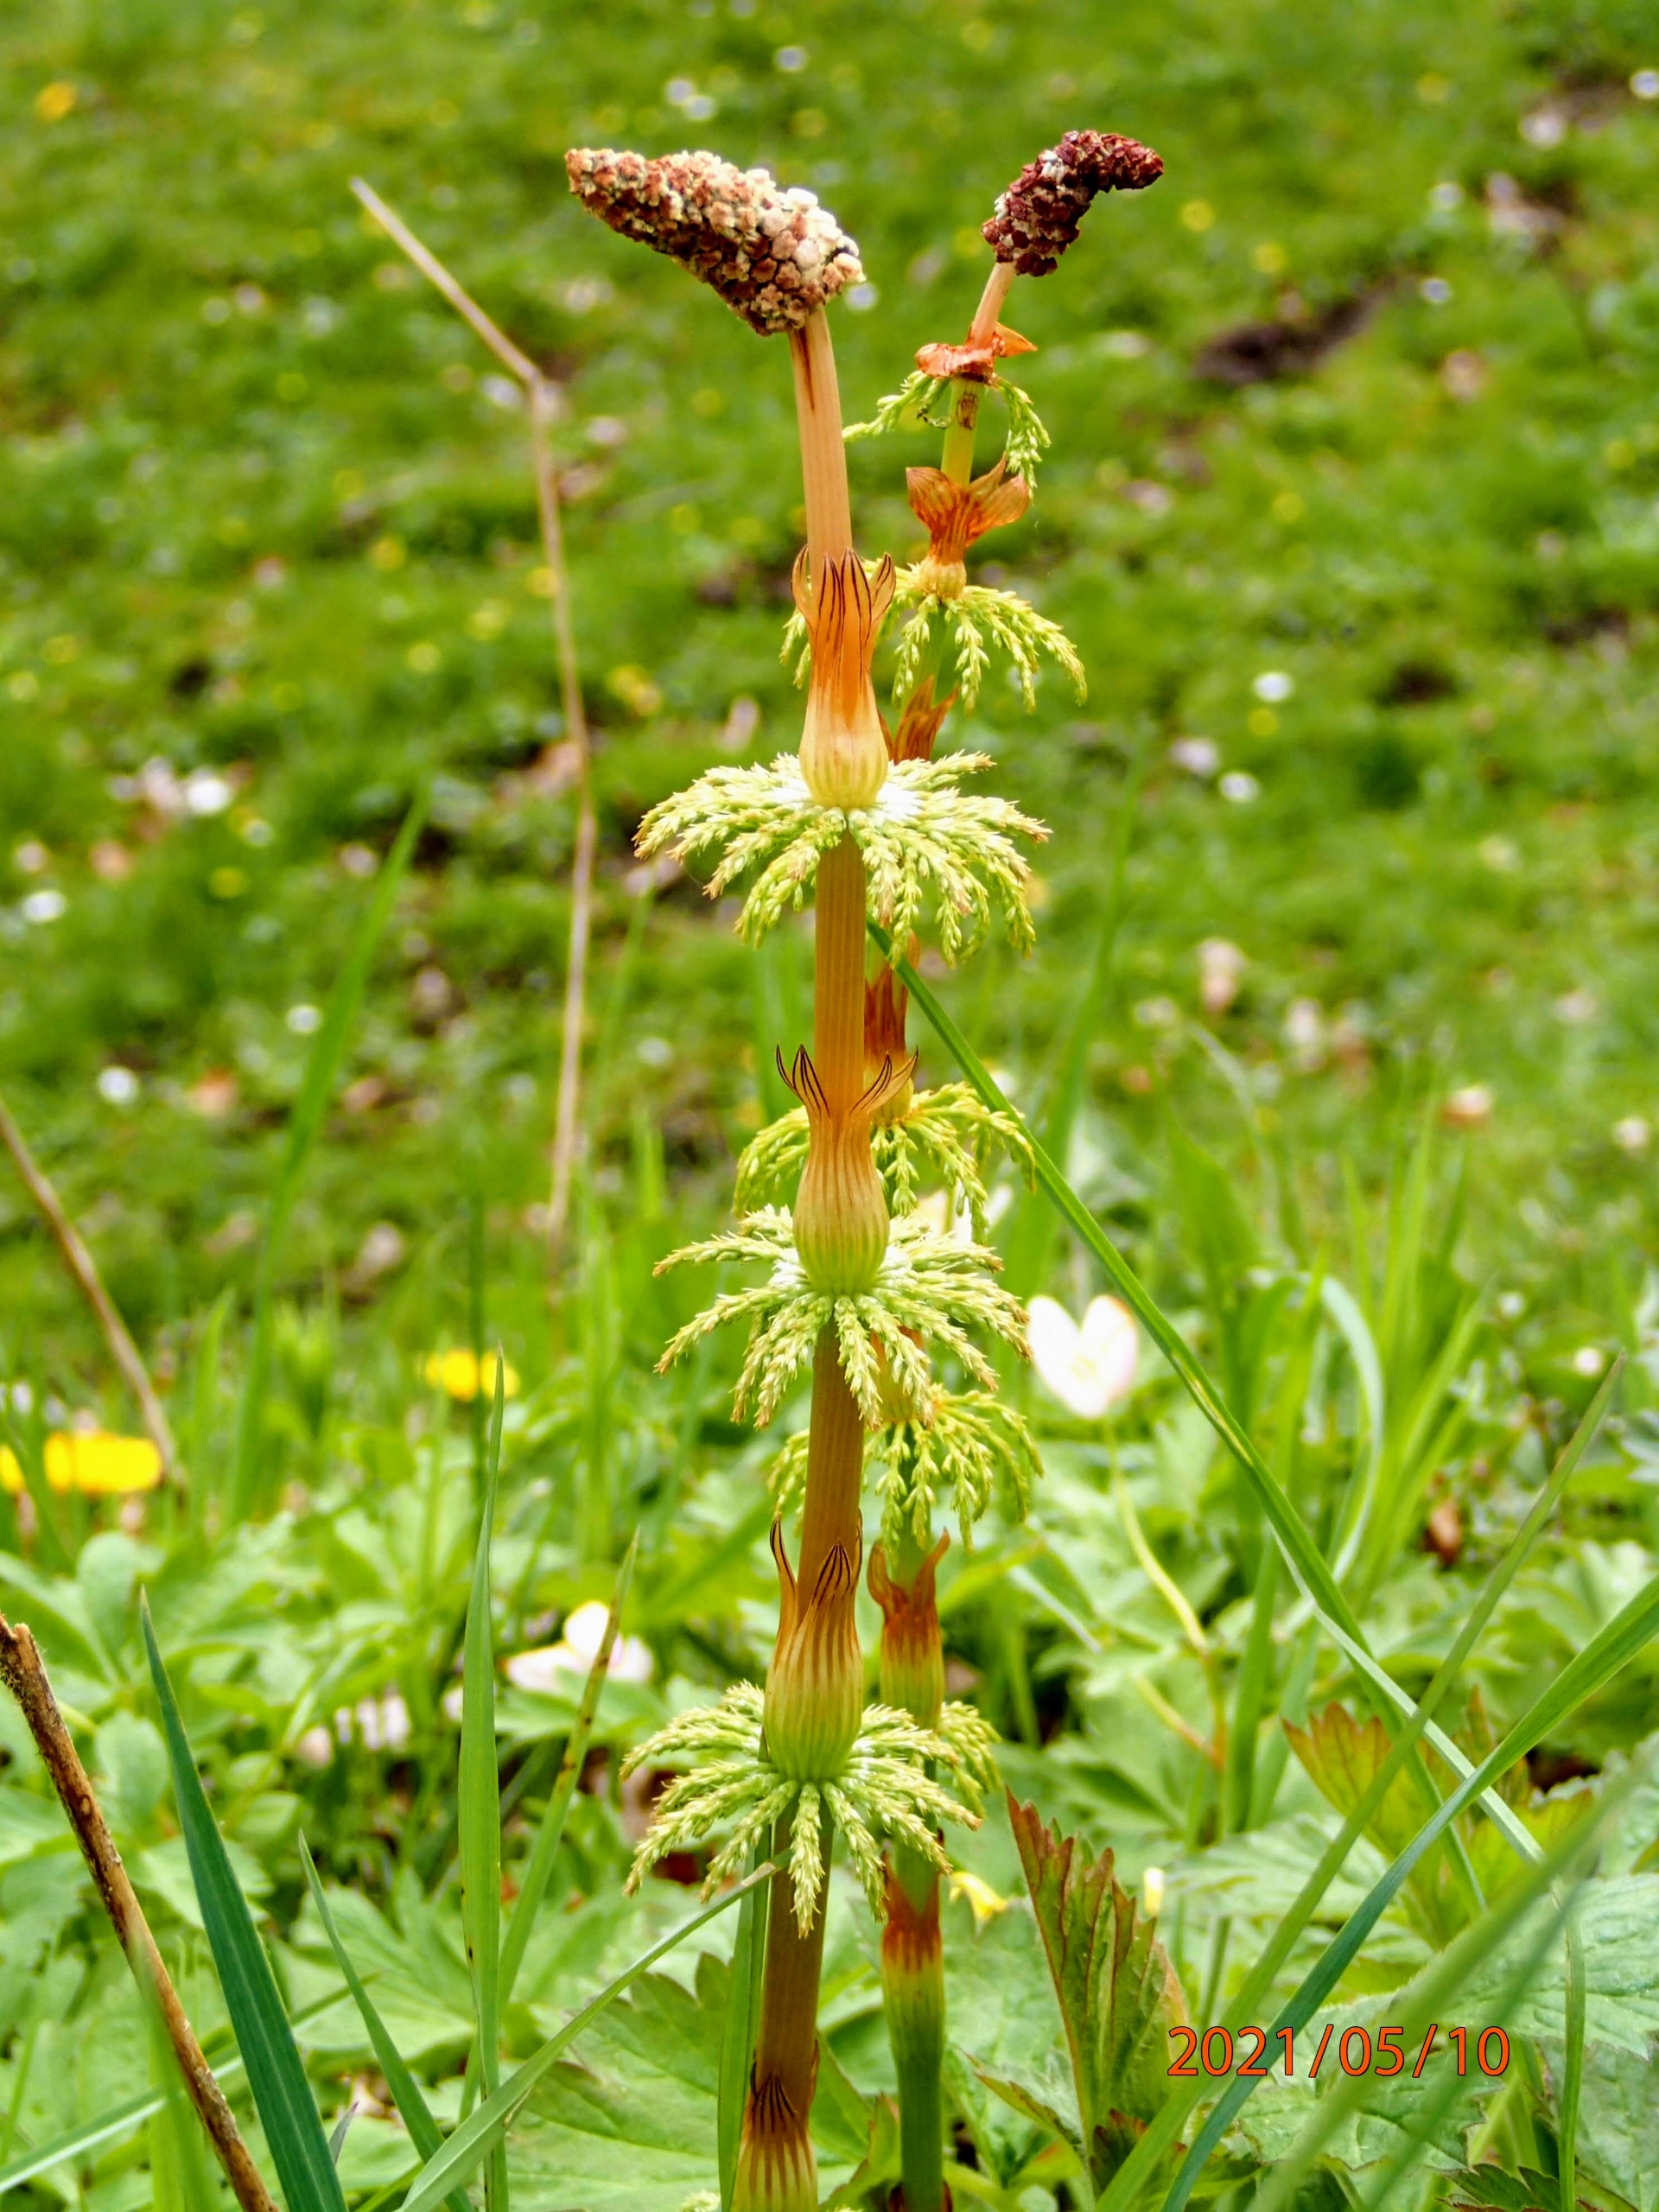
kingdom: Plantae
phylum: Tracheophyta
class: Polypodiopsida
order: Equisetales
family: Equisetaceae
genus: Equisetum
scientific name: Equisetum sylvaticum
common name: Skov-padderok
